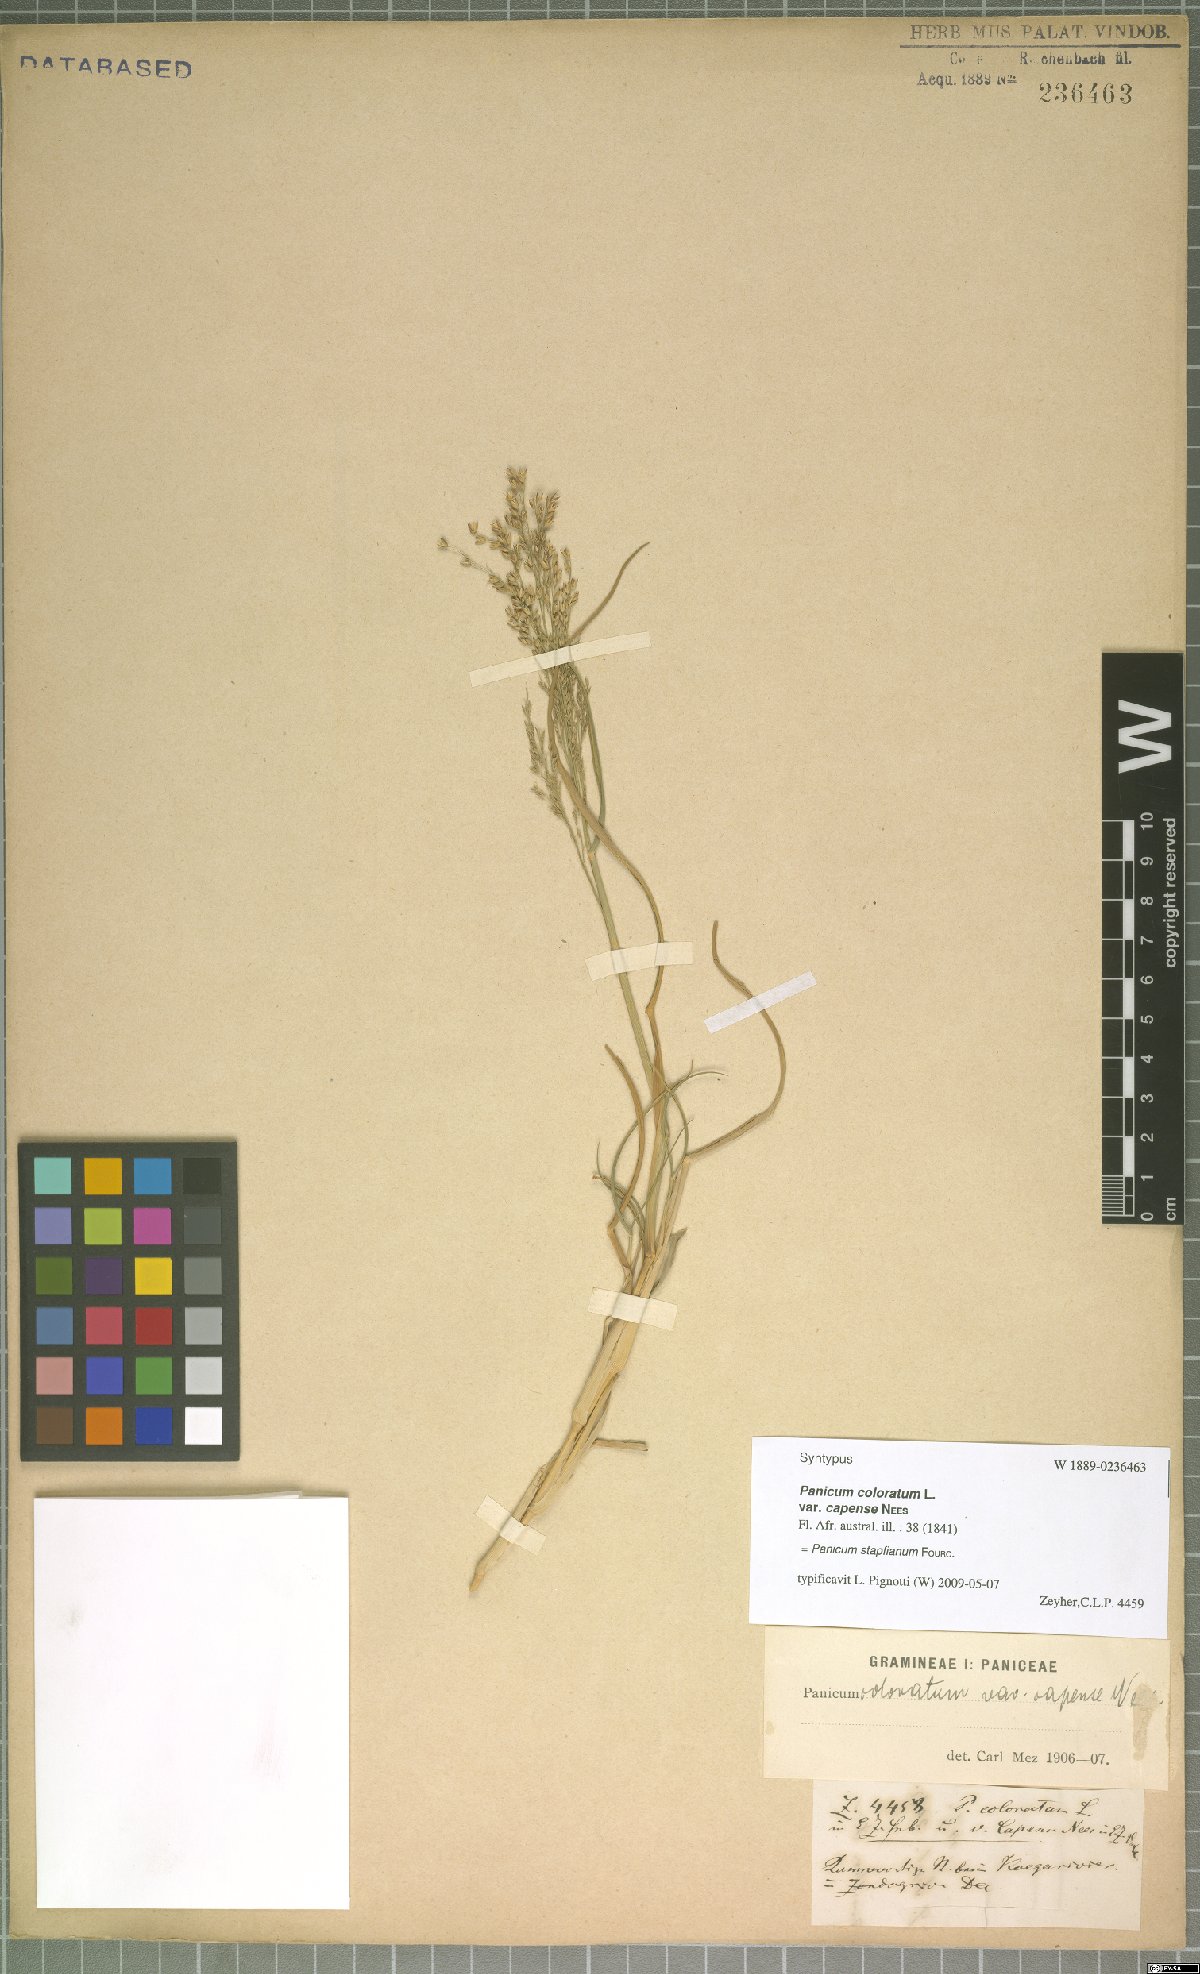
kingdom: Plantae
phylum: Tracheophyta
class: Liliopsida
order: Poales
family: Poaceae
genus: Panicum
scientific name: Panicum stapfianum
